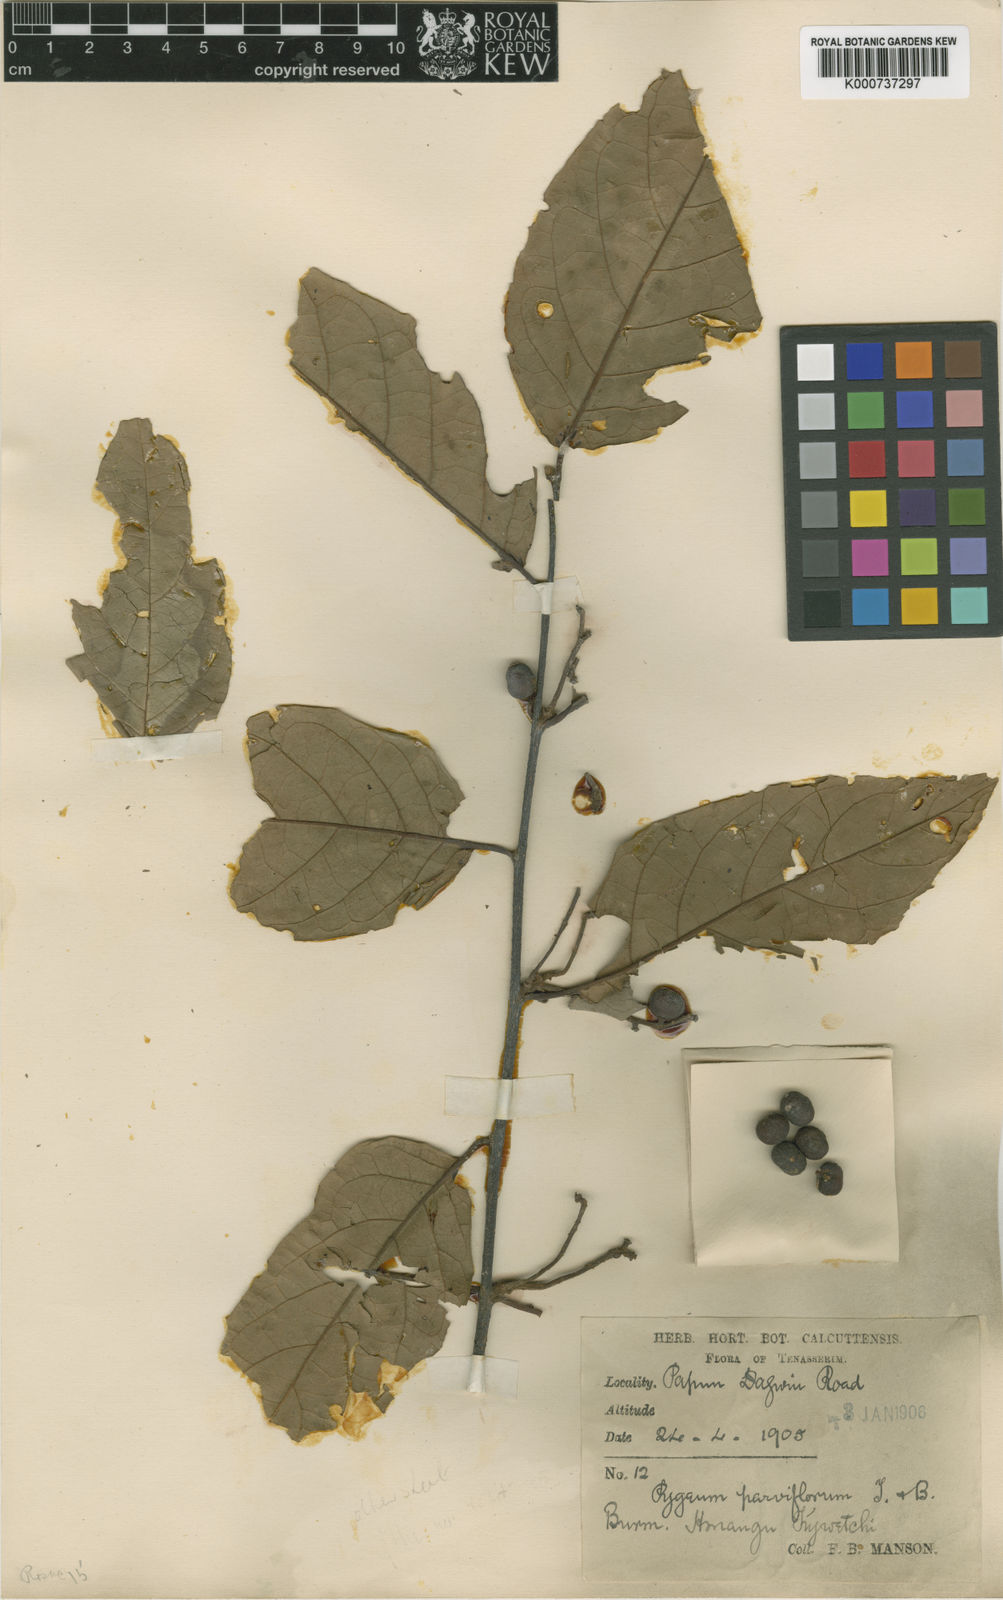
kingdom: Plantae
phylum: Tracheophyta
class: Magnoliopsida
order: Rosales
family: Rosaceae
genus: Prunus
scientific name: Prunus arborea
